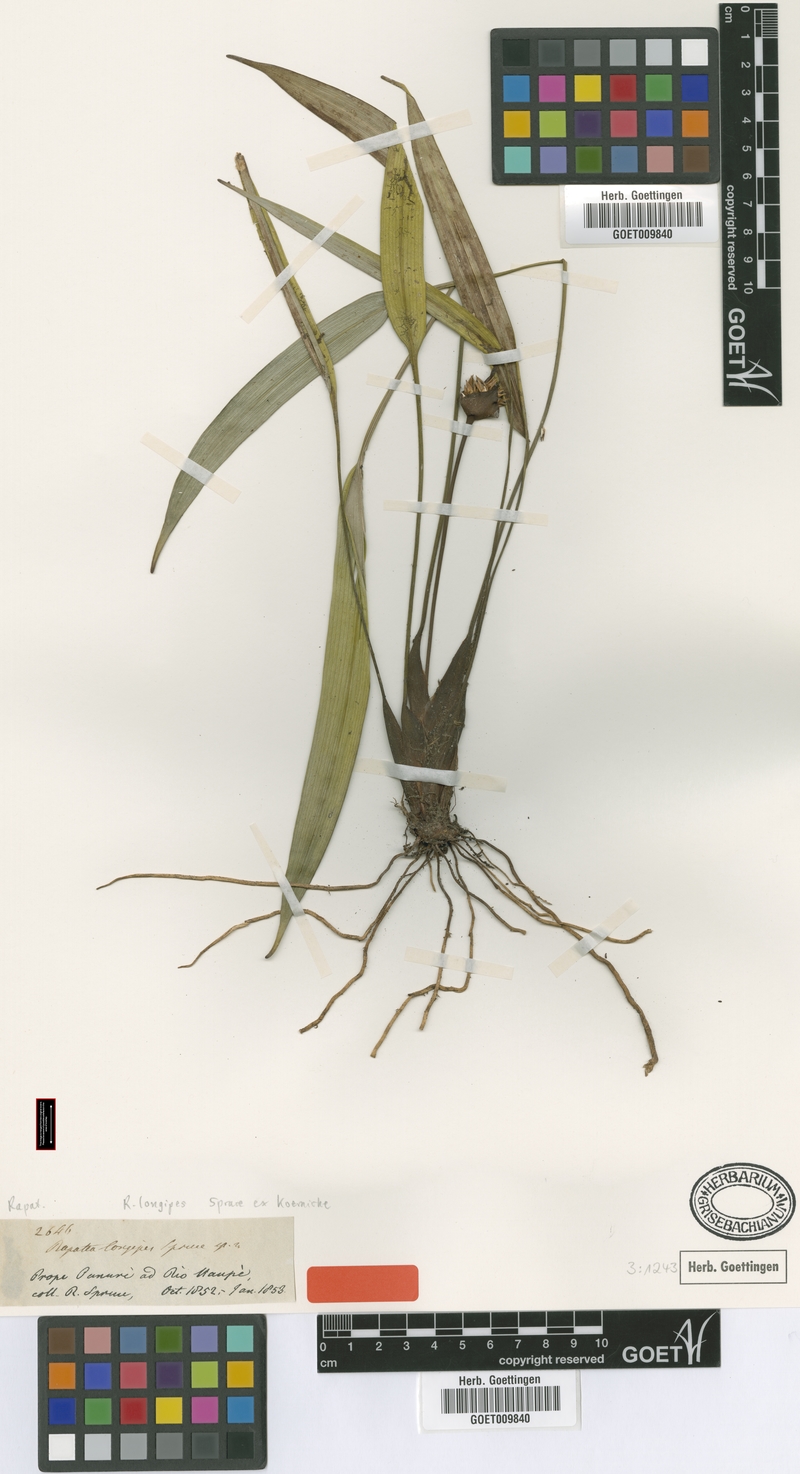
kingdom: Plantae
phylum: Tracheophyta
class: Liliopsida
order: Poales
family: Rapateaceae
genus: Rapatea
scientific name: Rapatea longipes
